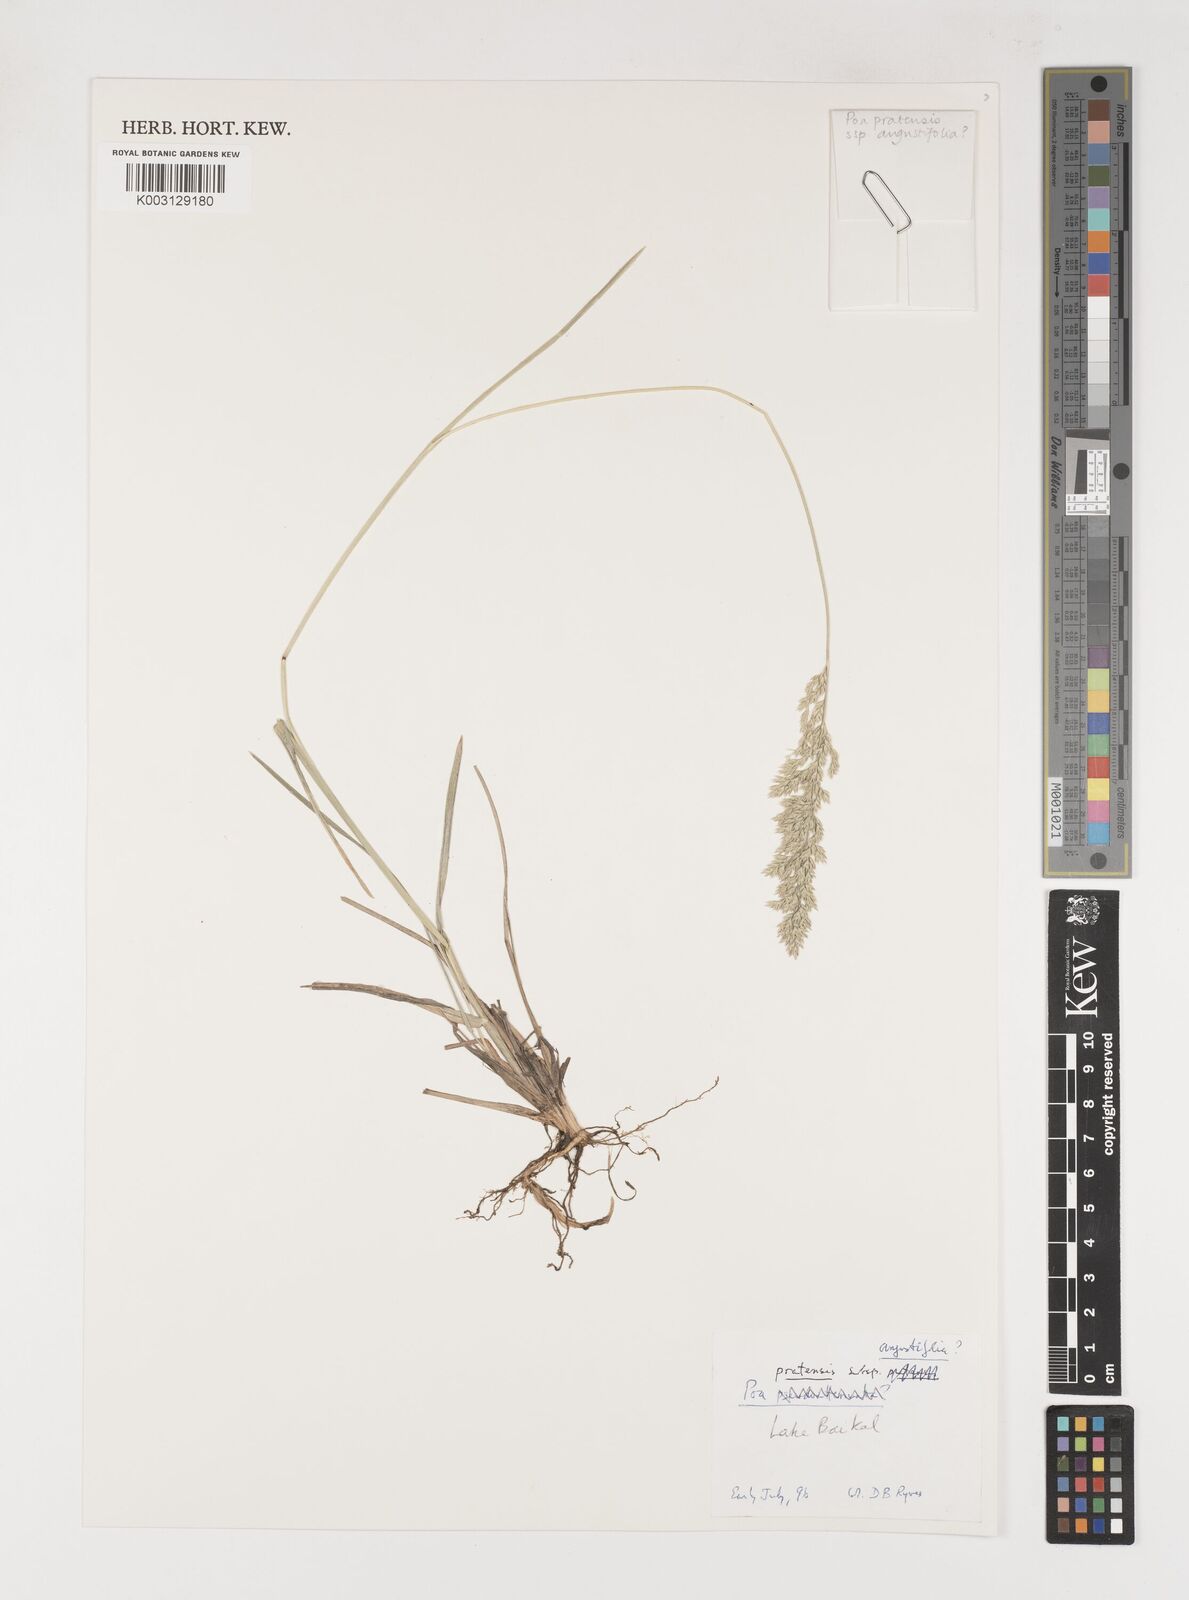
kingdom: Plantae
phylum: Tracheophyta
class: Liliopsida
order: Poales
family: Poaceae
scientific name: Poaceae
